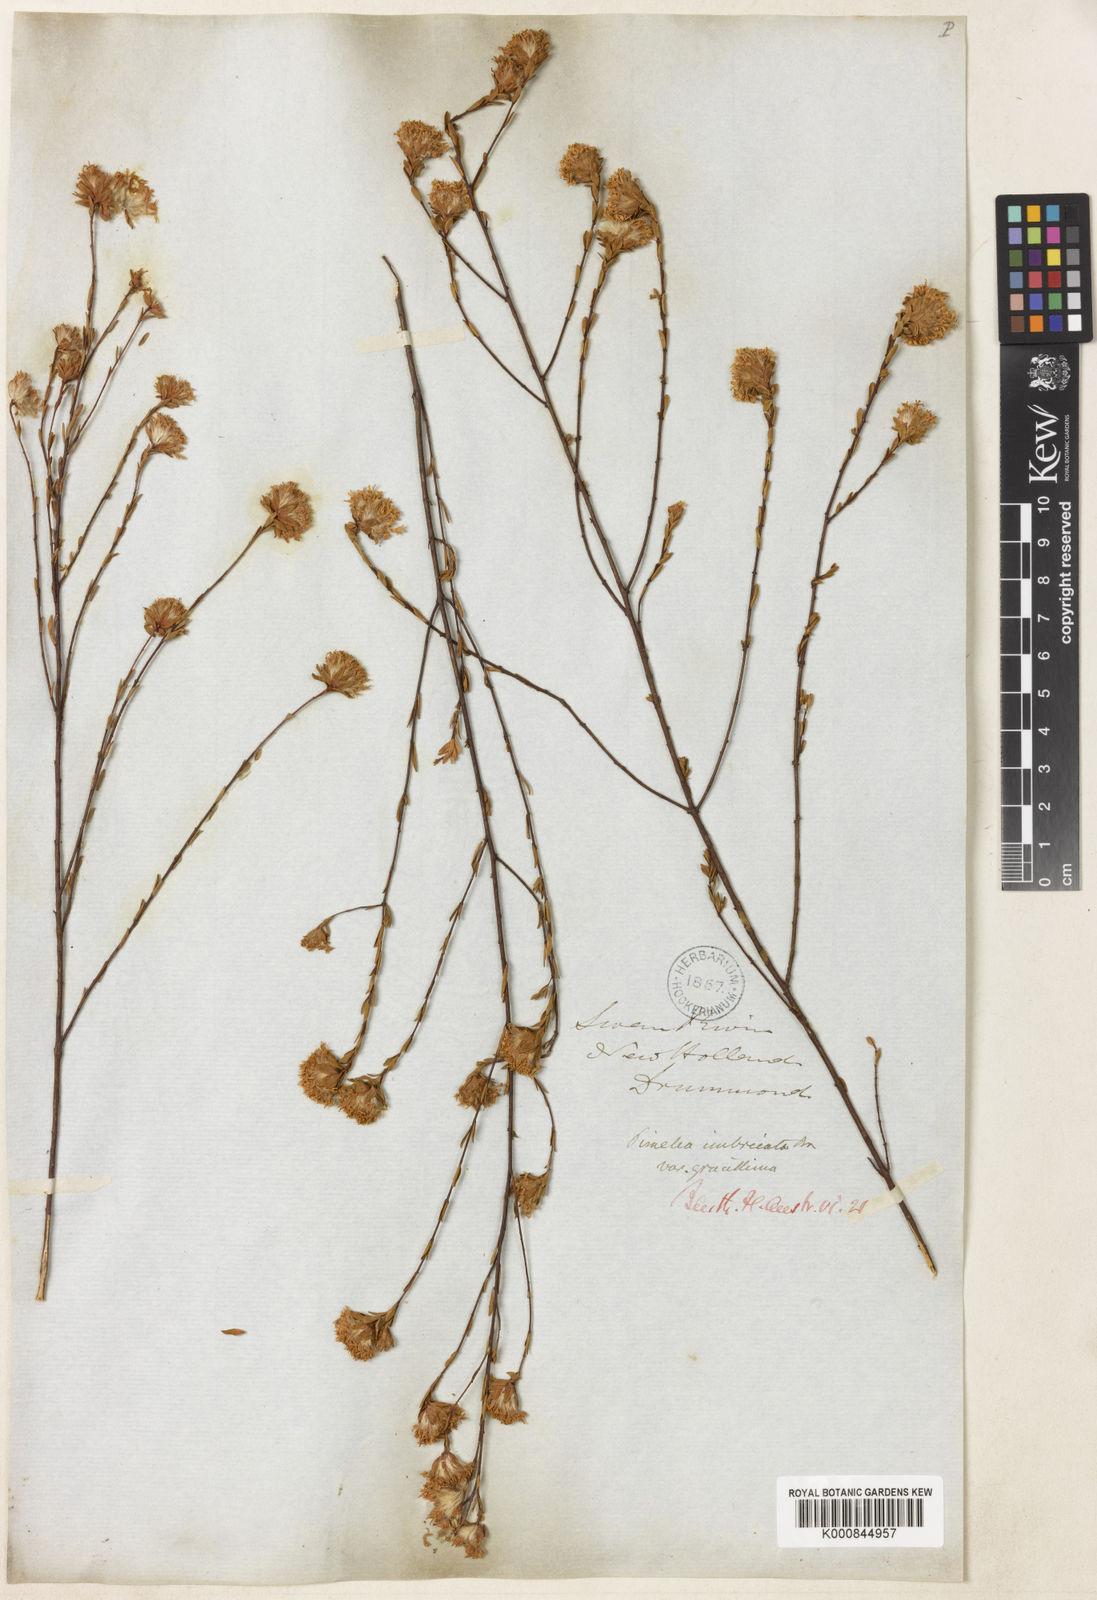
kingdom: Plantae
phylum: Tracheophyta
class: Magnoliopsida
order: Malvales
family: Thymelaeaceae
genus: Pimelea
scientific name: Pimelea imbricata
